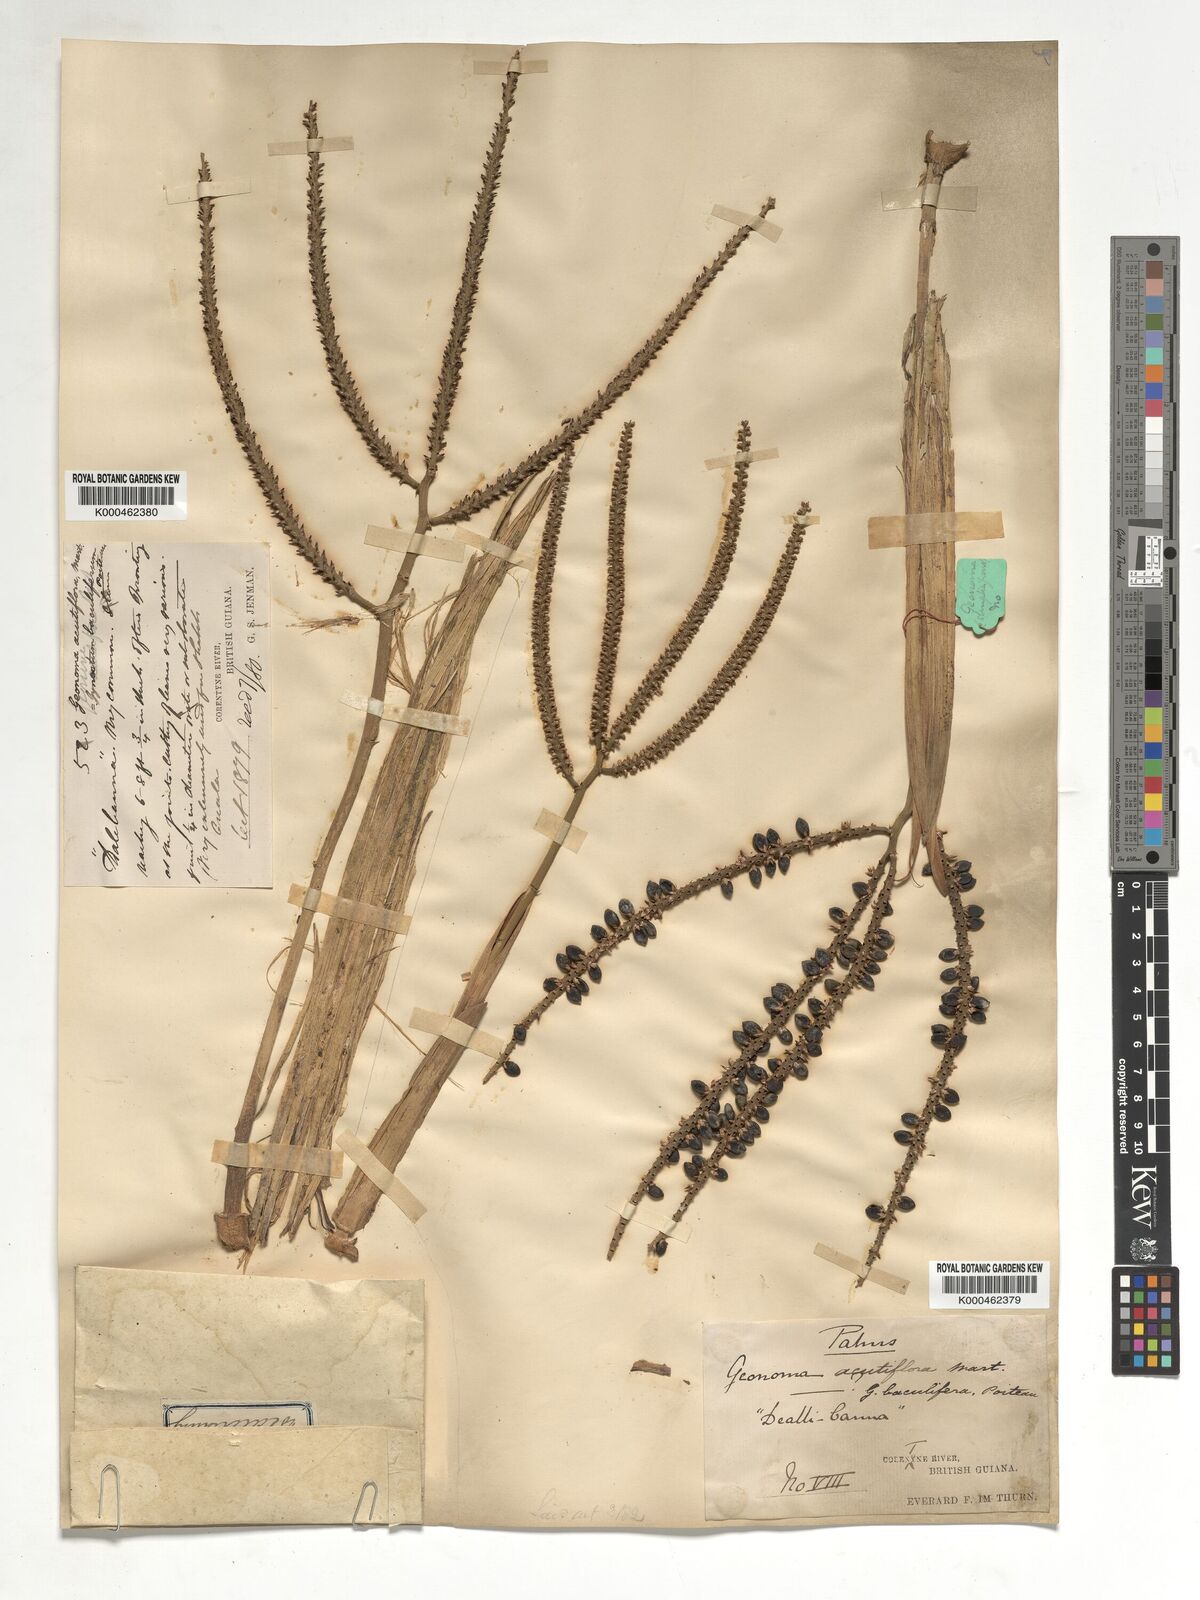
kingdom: Plantae
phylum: Tracheophyta
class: Liliopsida
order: Arecales
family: Arecaceae
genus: Geonoma
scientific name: Geonoma baculifera
